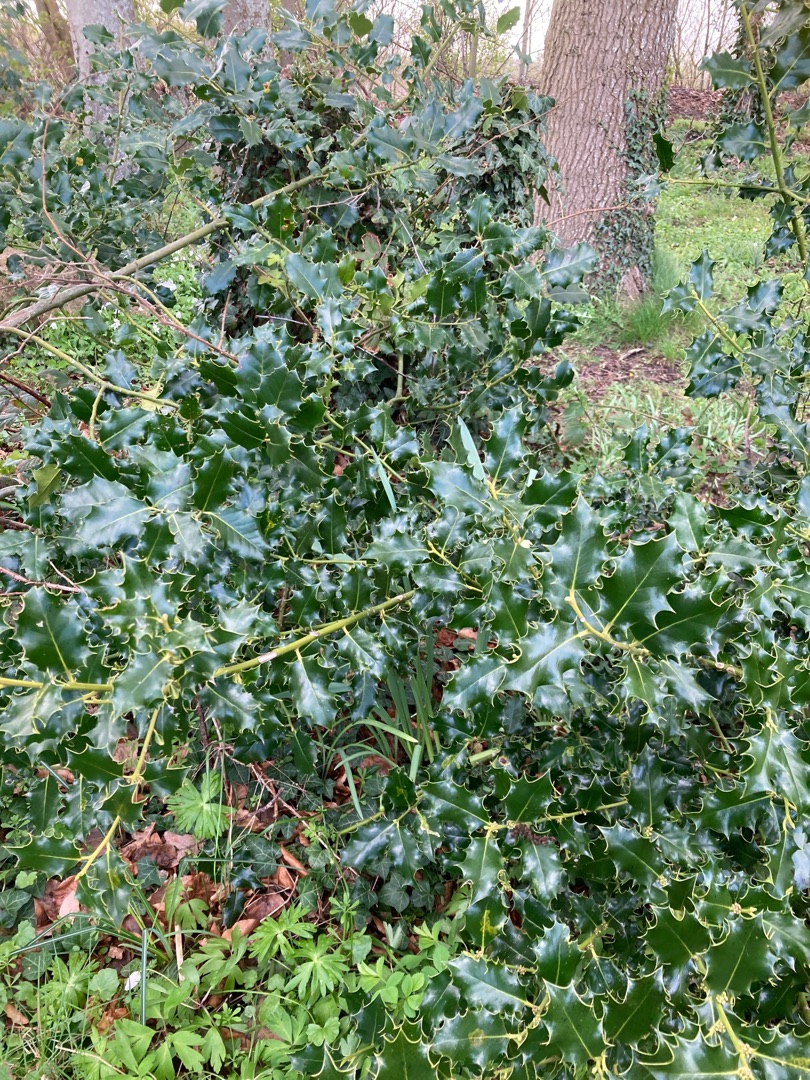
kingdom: Plantae
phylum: Tracheophyta
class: Magnoliopsida
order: Aquifoliales
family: Aquifoliaceae
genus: Ilex
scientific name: Ilex aquifolium
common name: Kristtorn
